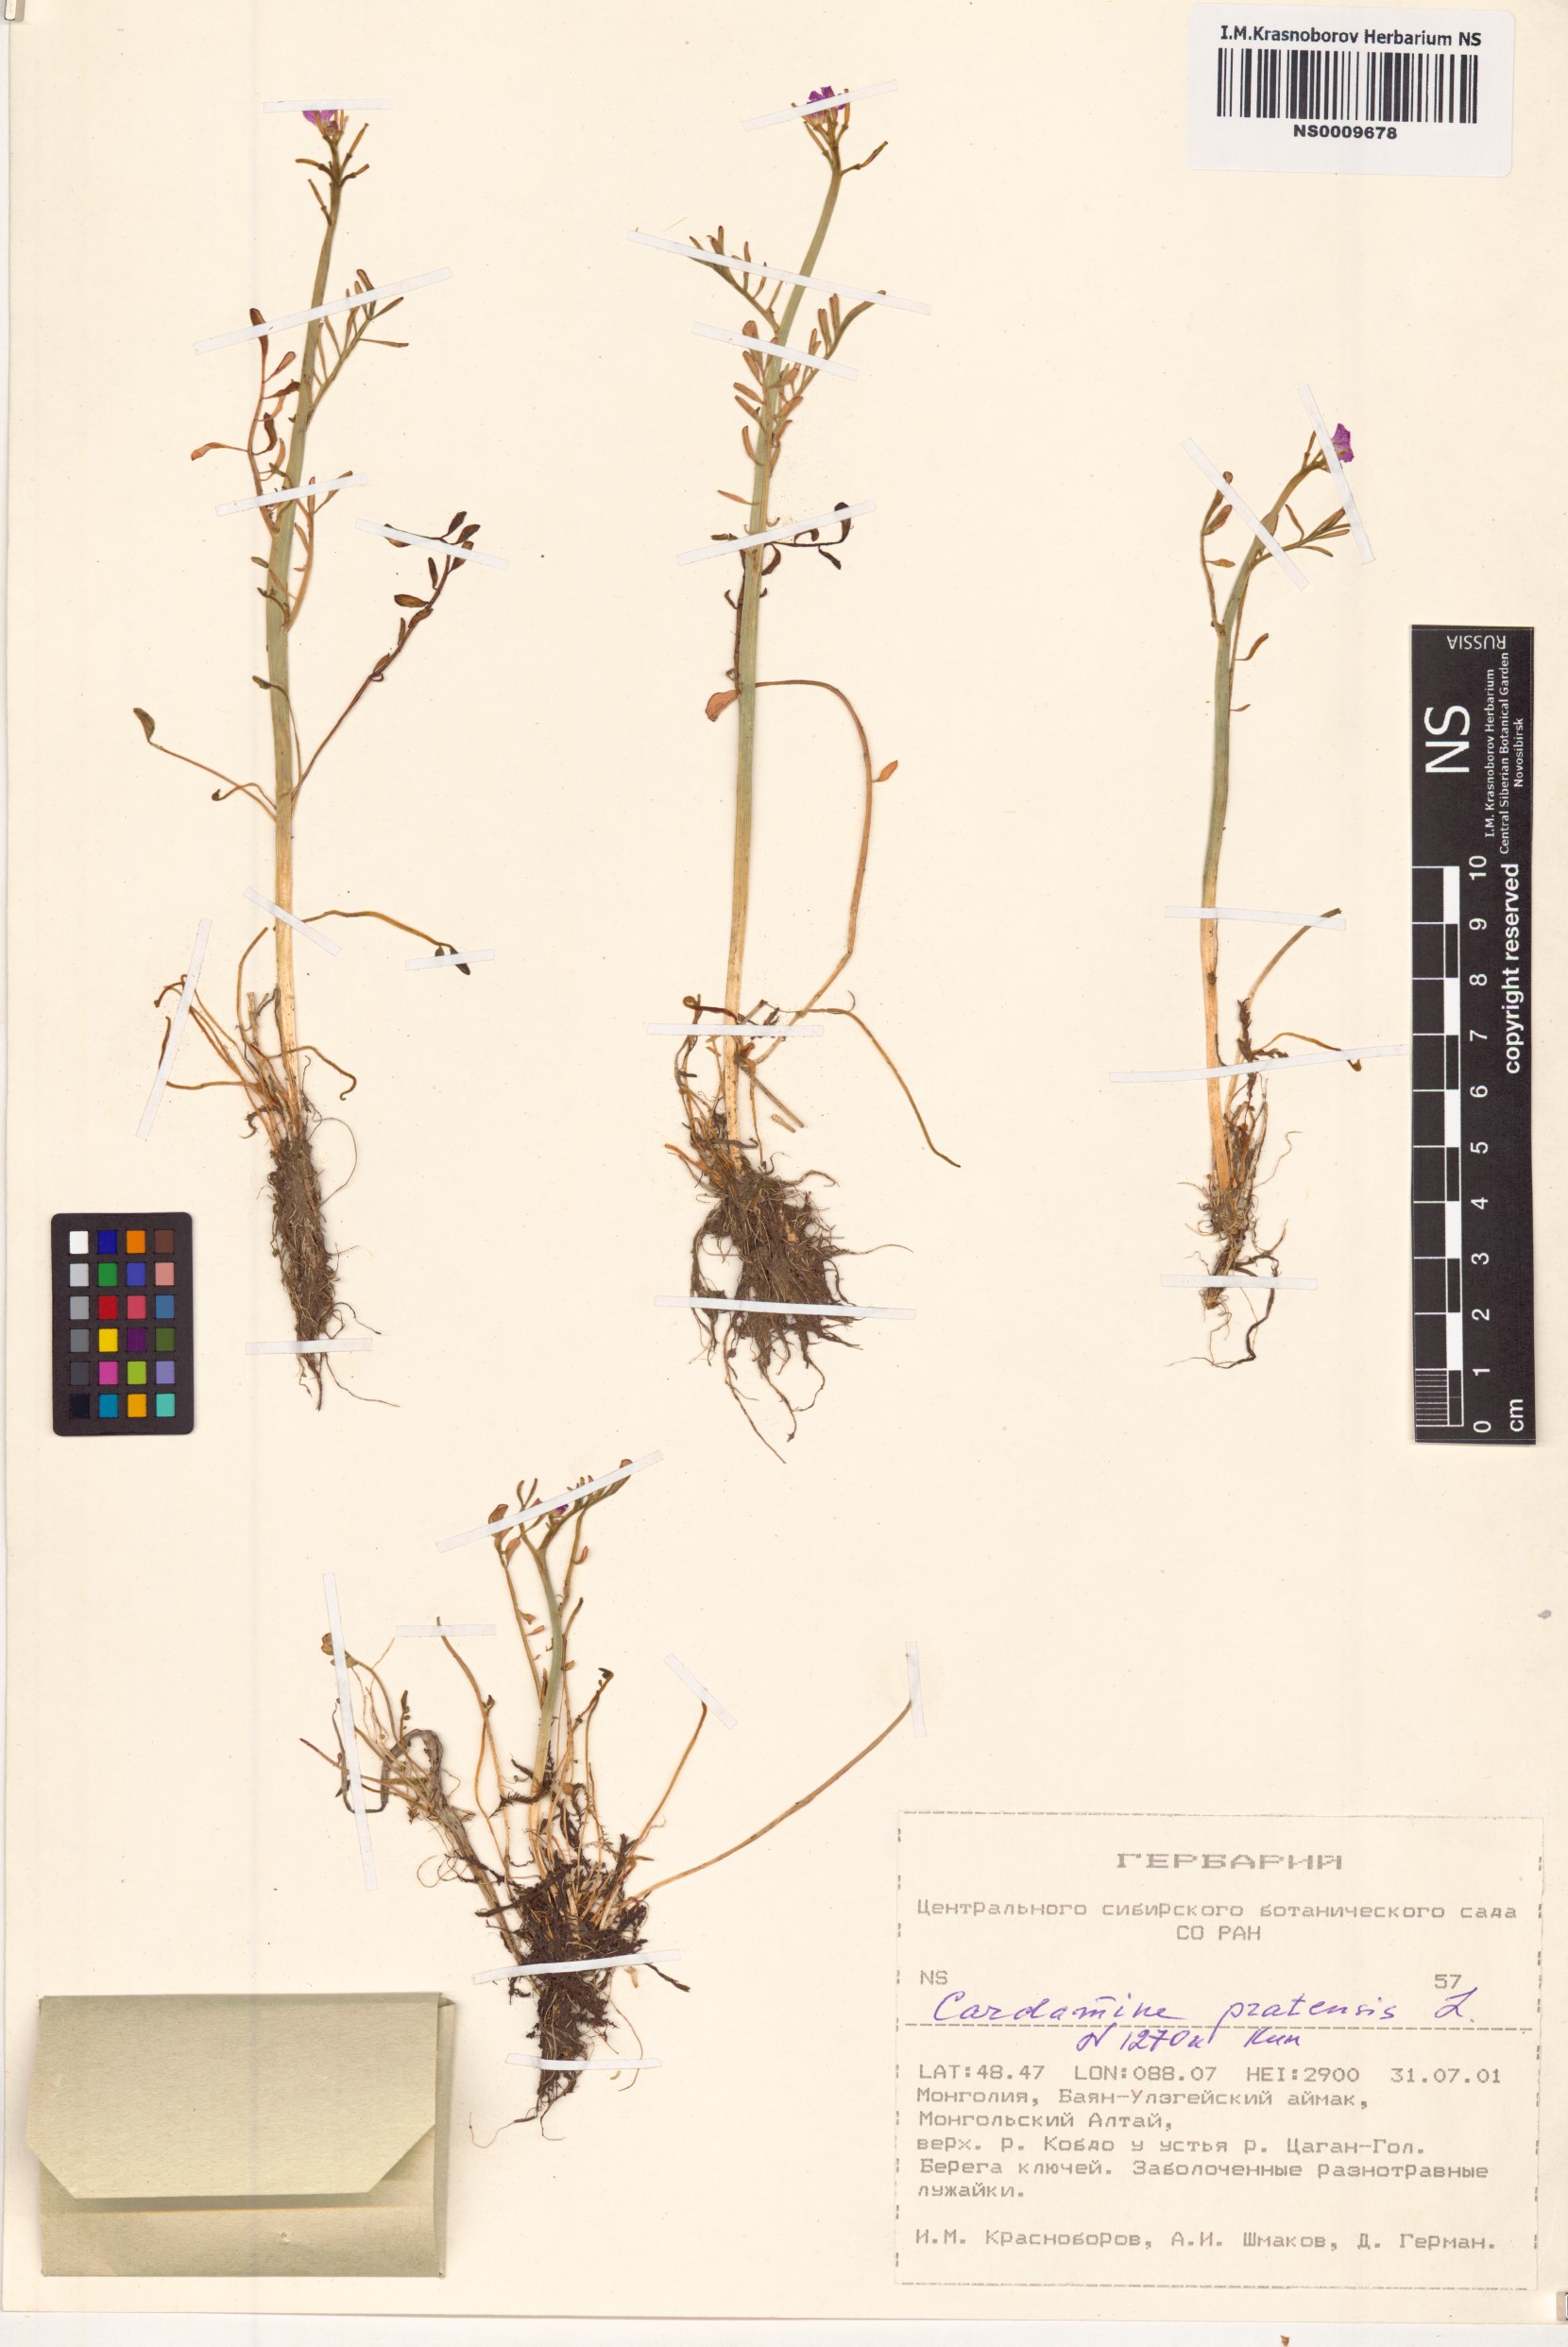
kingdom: Plantae
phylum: Tracheophyta
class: Magnoliopsida
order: Brassicales
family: Brassicaceae
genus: Cardamine
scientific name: Cardamine pratensis
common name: Cuckoo flower
